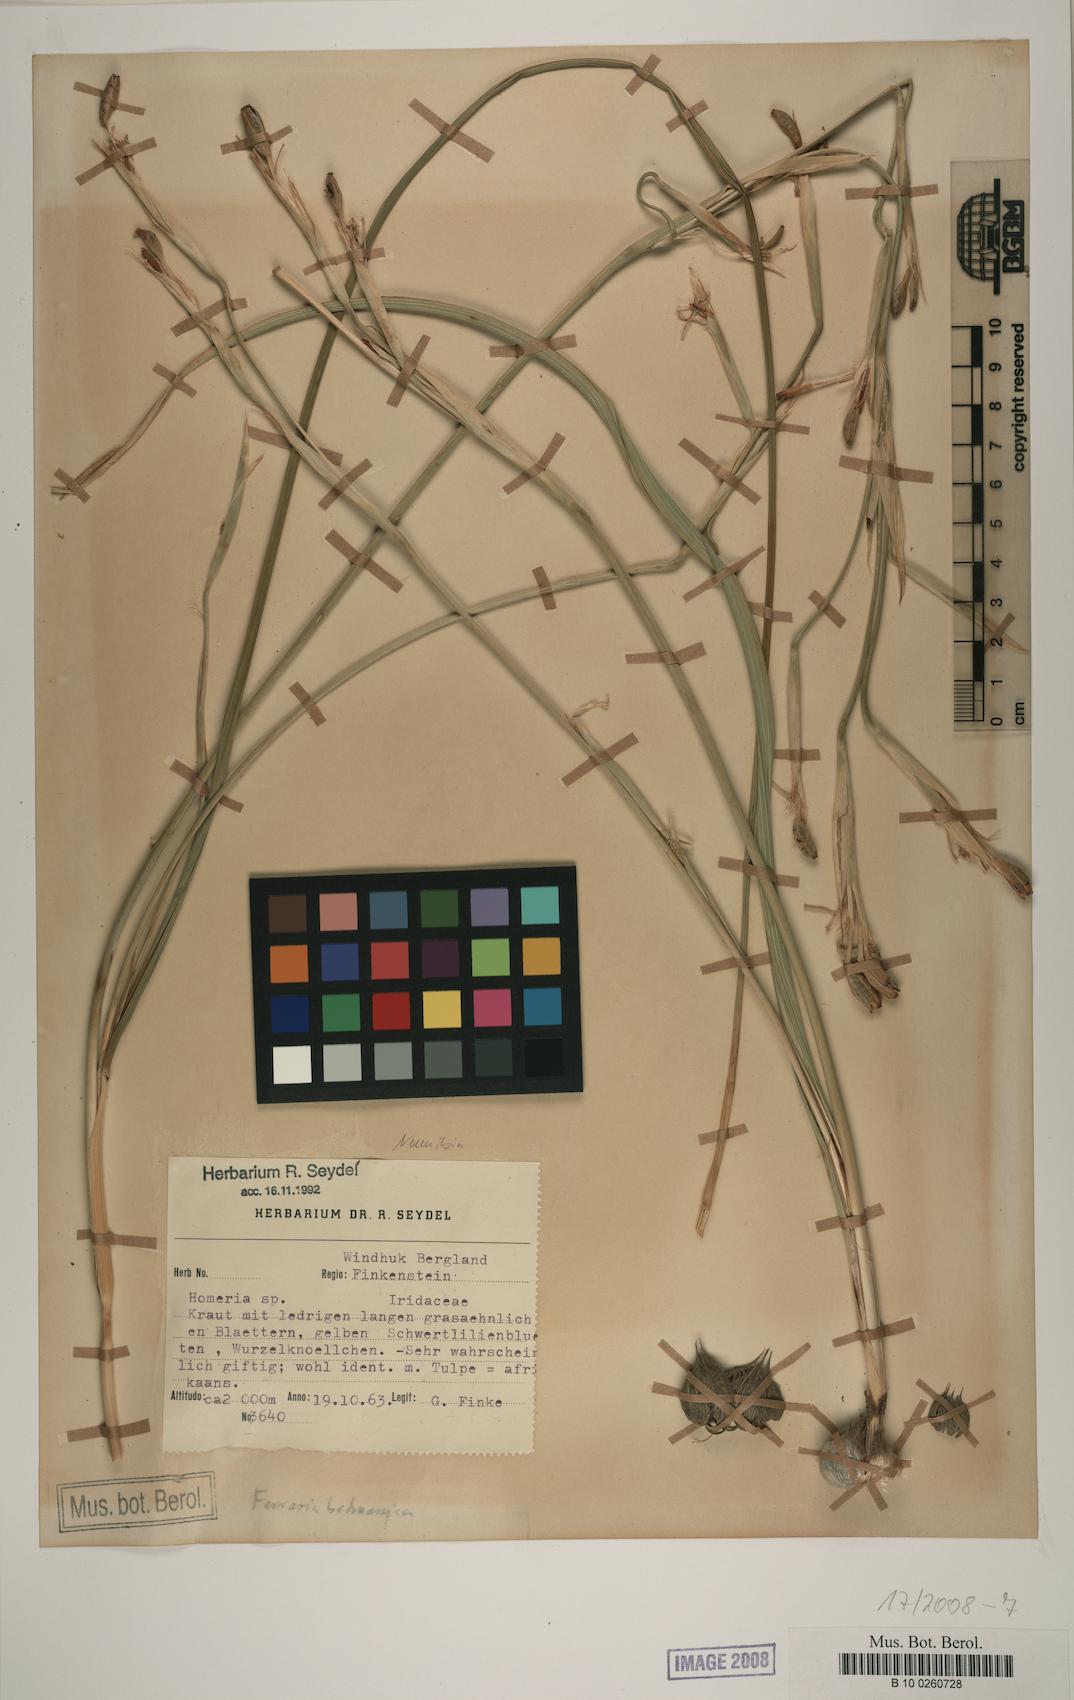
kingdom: Plantae
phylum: Tracheophyta
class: Liliopsida
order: Asparagales
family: Iridaceae
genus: Ferraria
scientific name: Ferraria glutinosa
